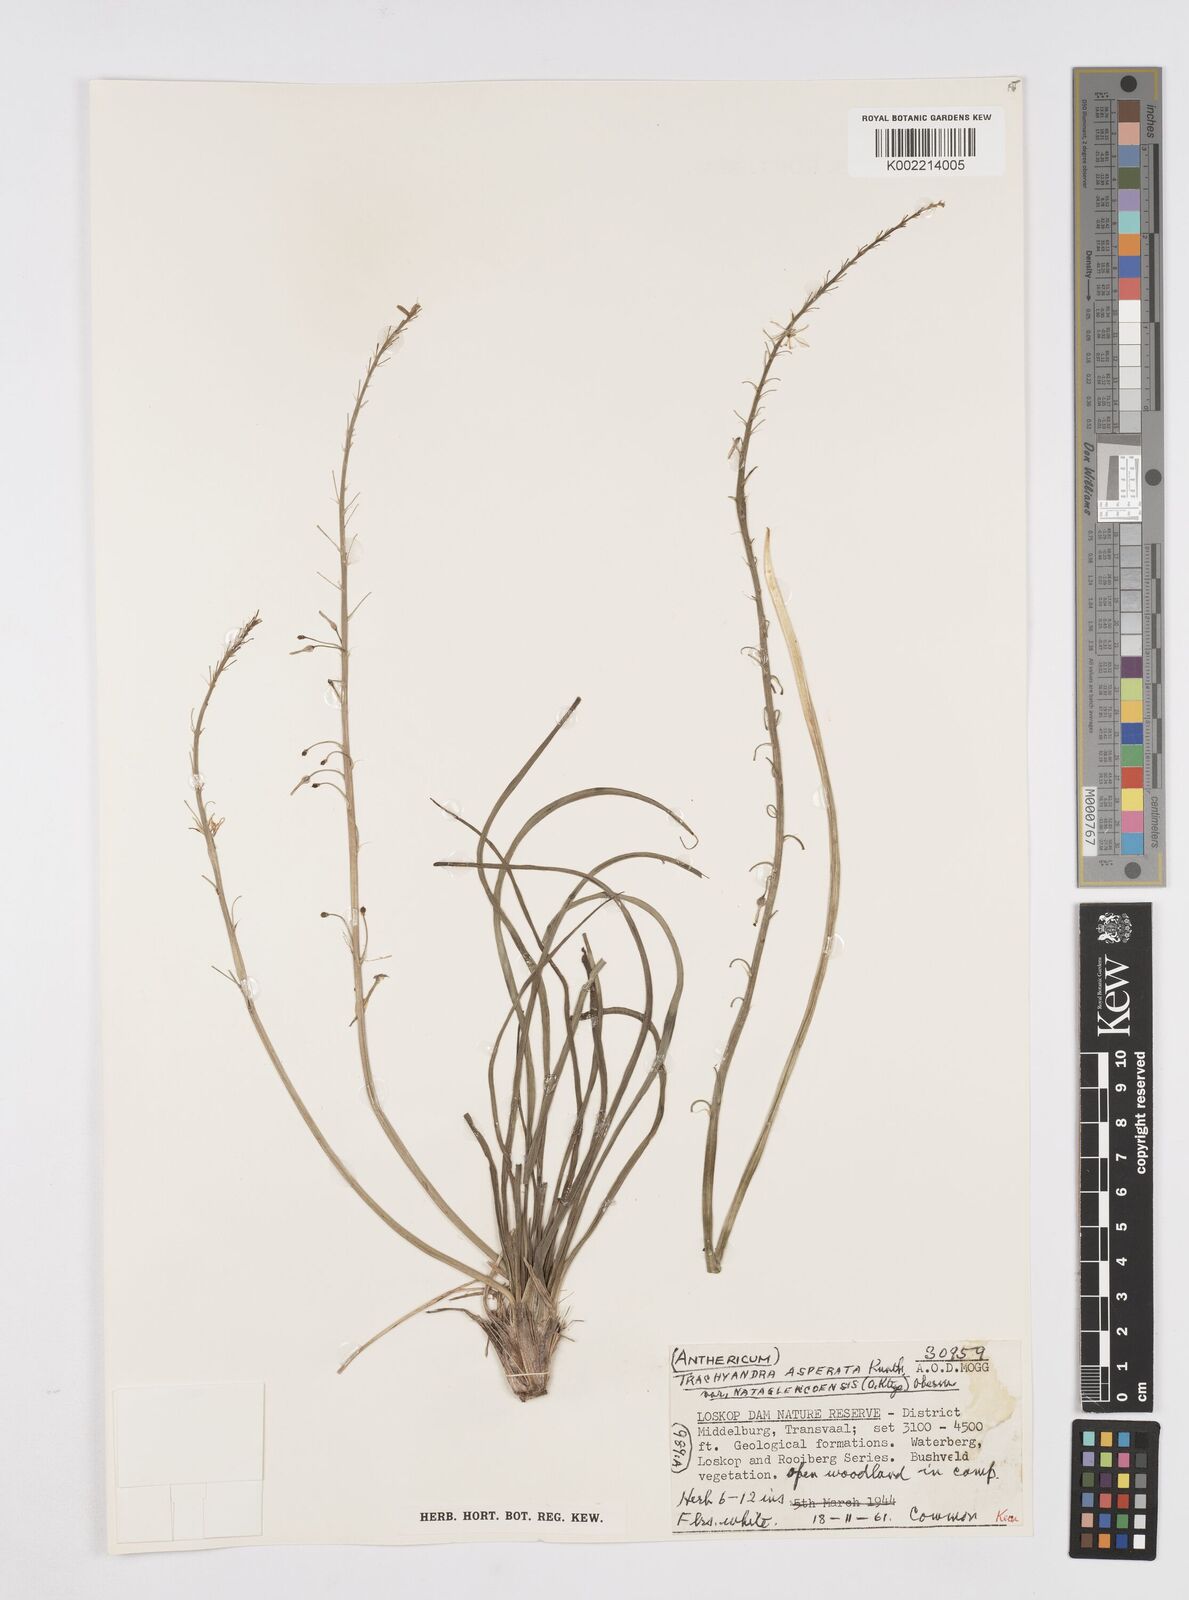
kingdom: Plantae
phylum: Tracheophyta
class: Liliopsida
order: Asparagales
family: Asphodelaceae
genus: Trachyandra
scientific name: Trachyandra asperata
